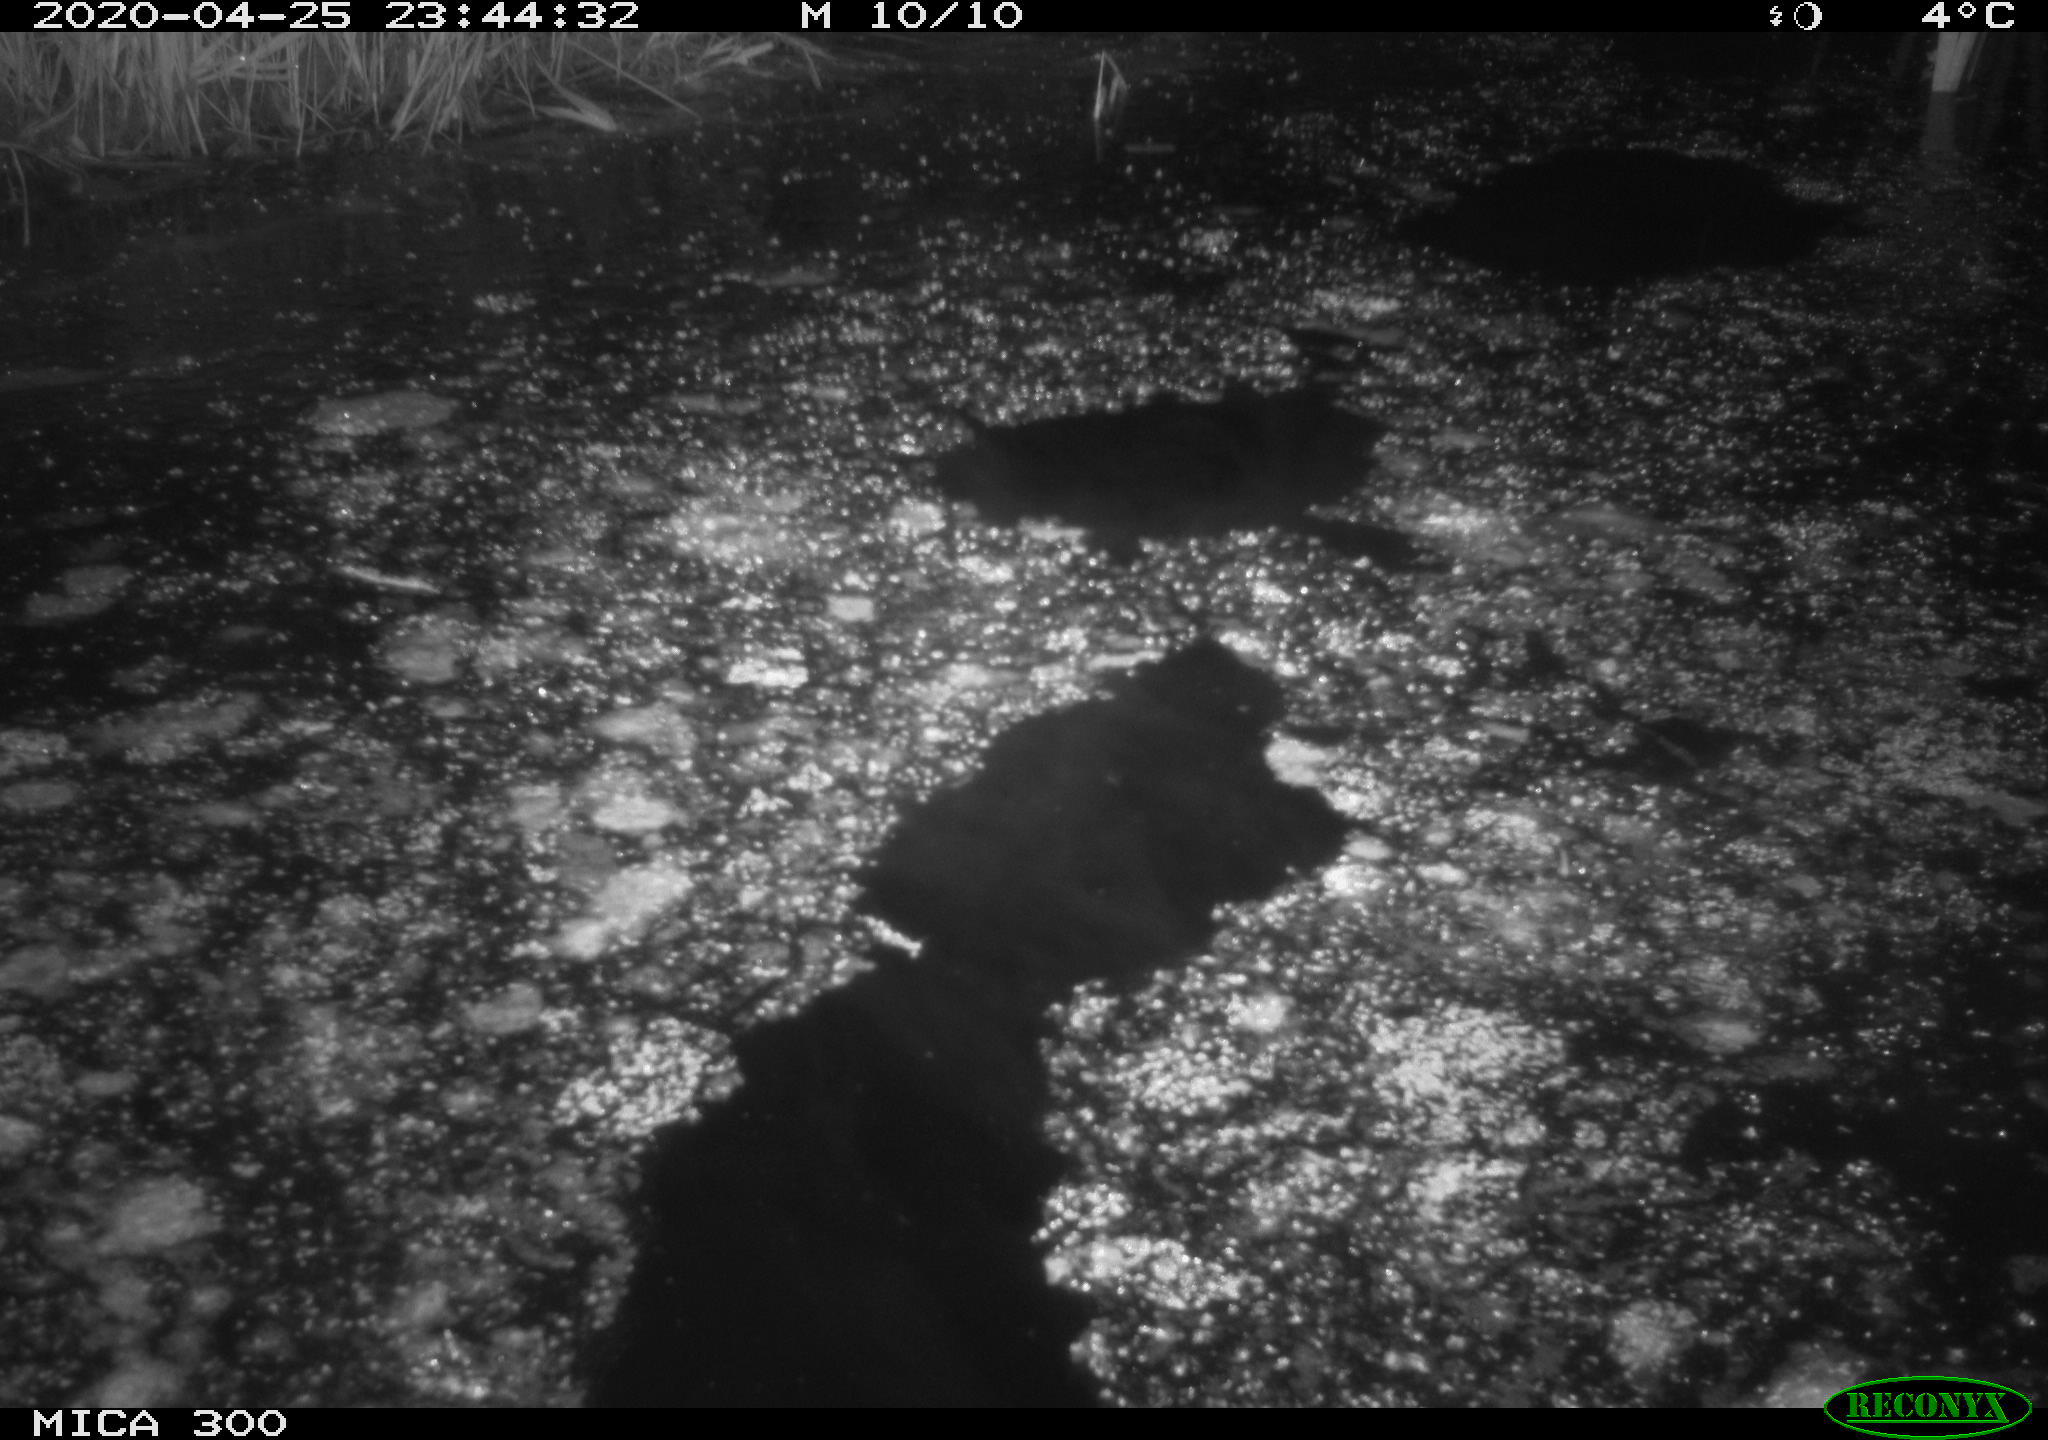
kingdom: Animalia
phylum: Chordata
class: Mammalia
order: Rodentia
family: Castoridae
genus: Castor
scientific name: Castor fiber
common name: Eurasian beaver
